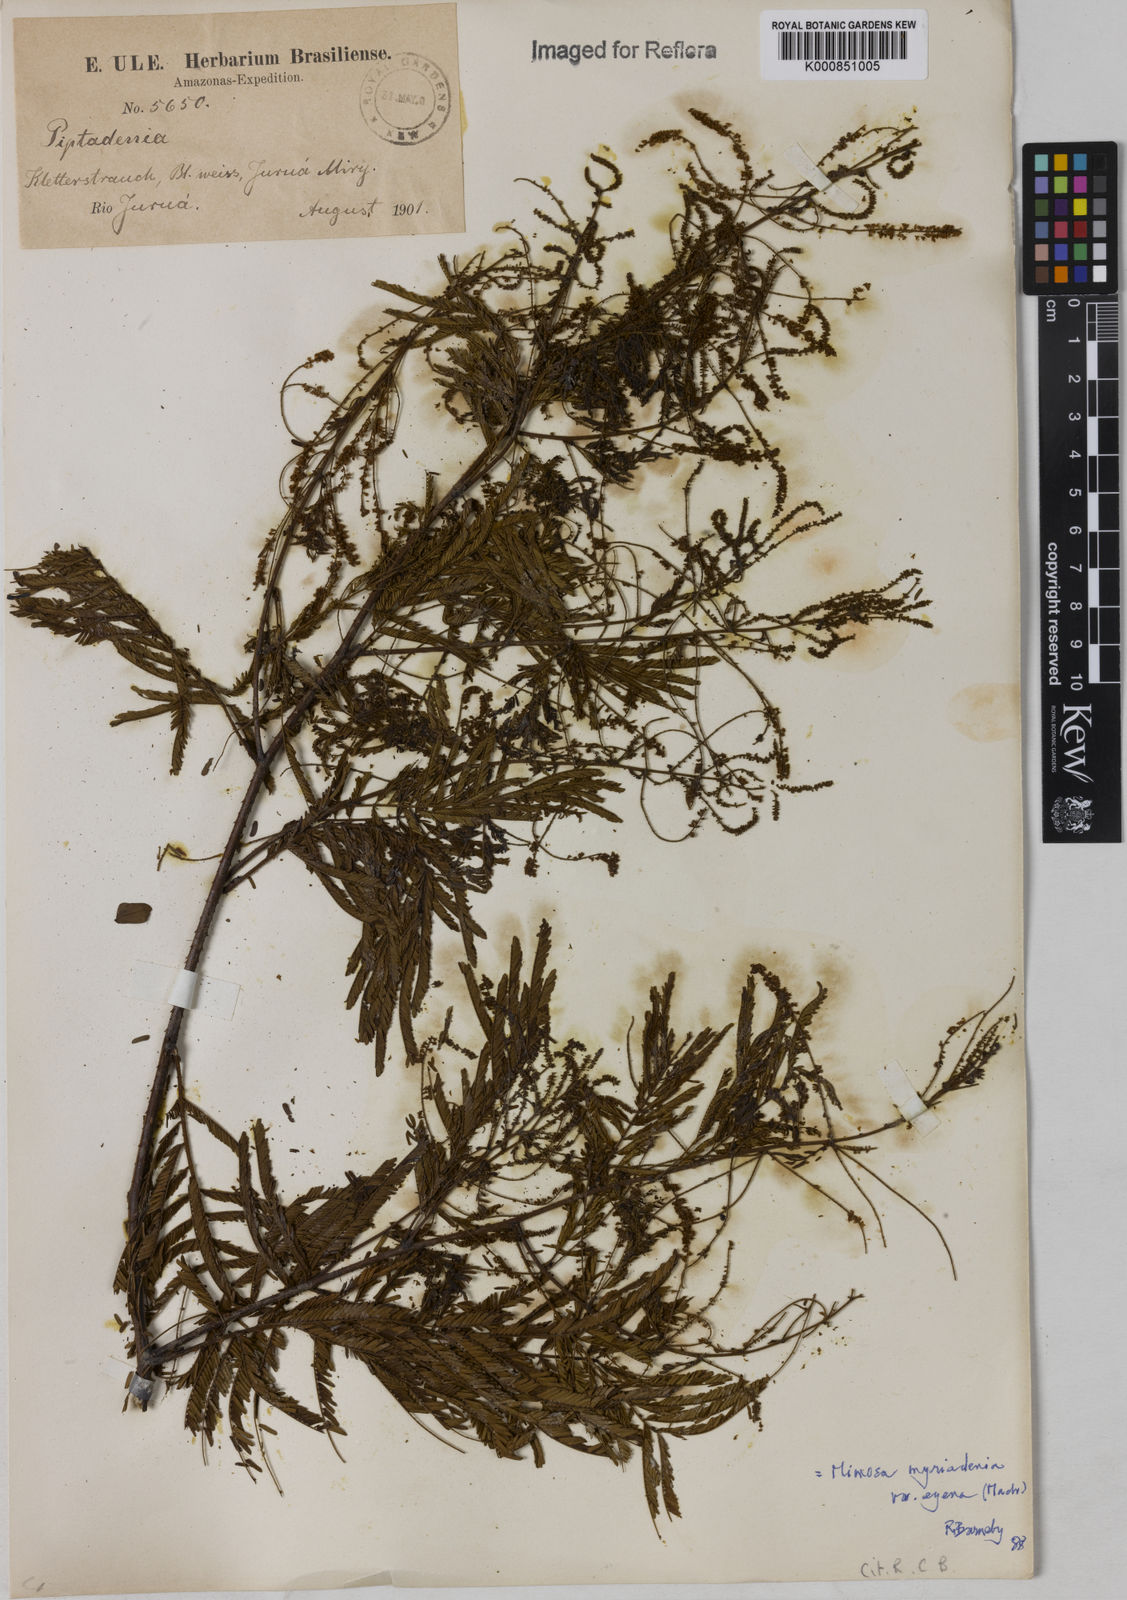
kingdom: Plantae
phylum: Tracheophyta
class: Magnoliopsida
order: Fabales
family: Fabaceae
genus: Mimosa
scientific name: Mimosa myriadenia
